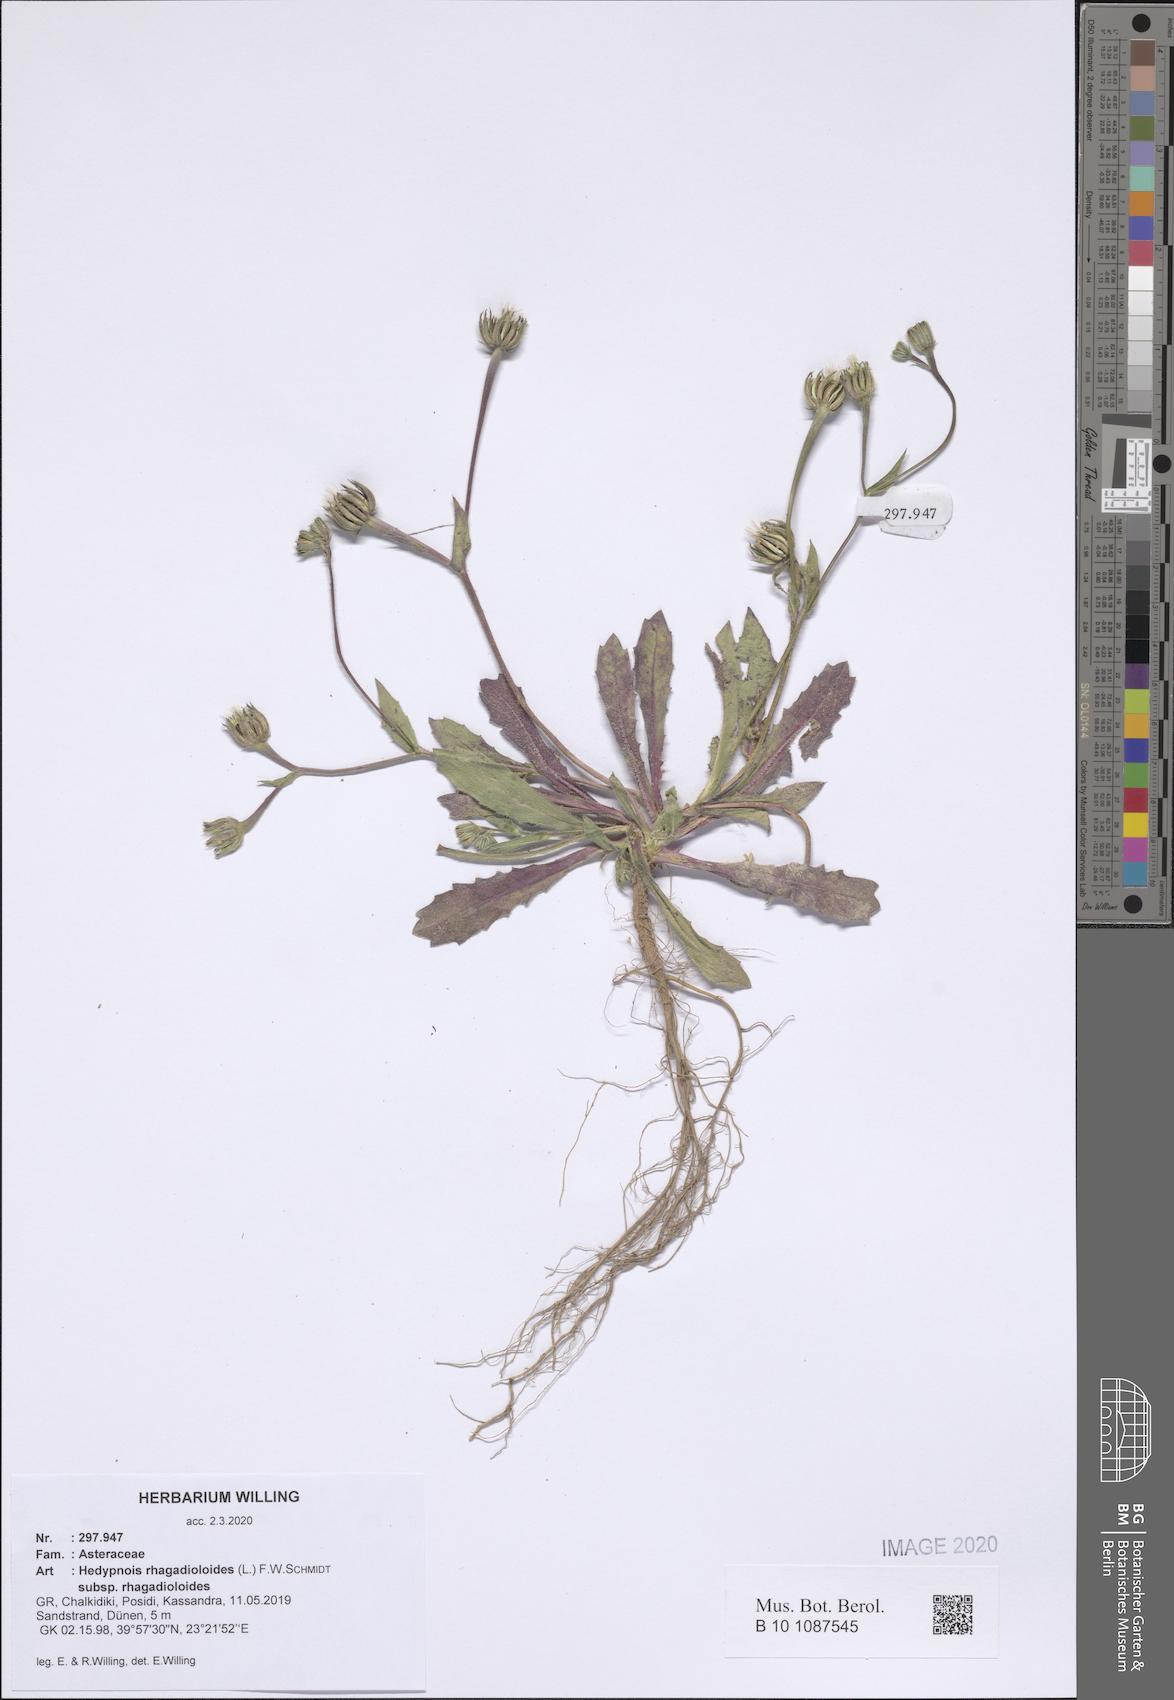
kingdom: Plantae
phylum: Tracheophyta
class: Magnoliopsida
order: Asterales
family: Asteraceae
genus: Hedypnois
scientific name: Hedypnois rhagadioloides
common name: Cretan weed
